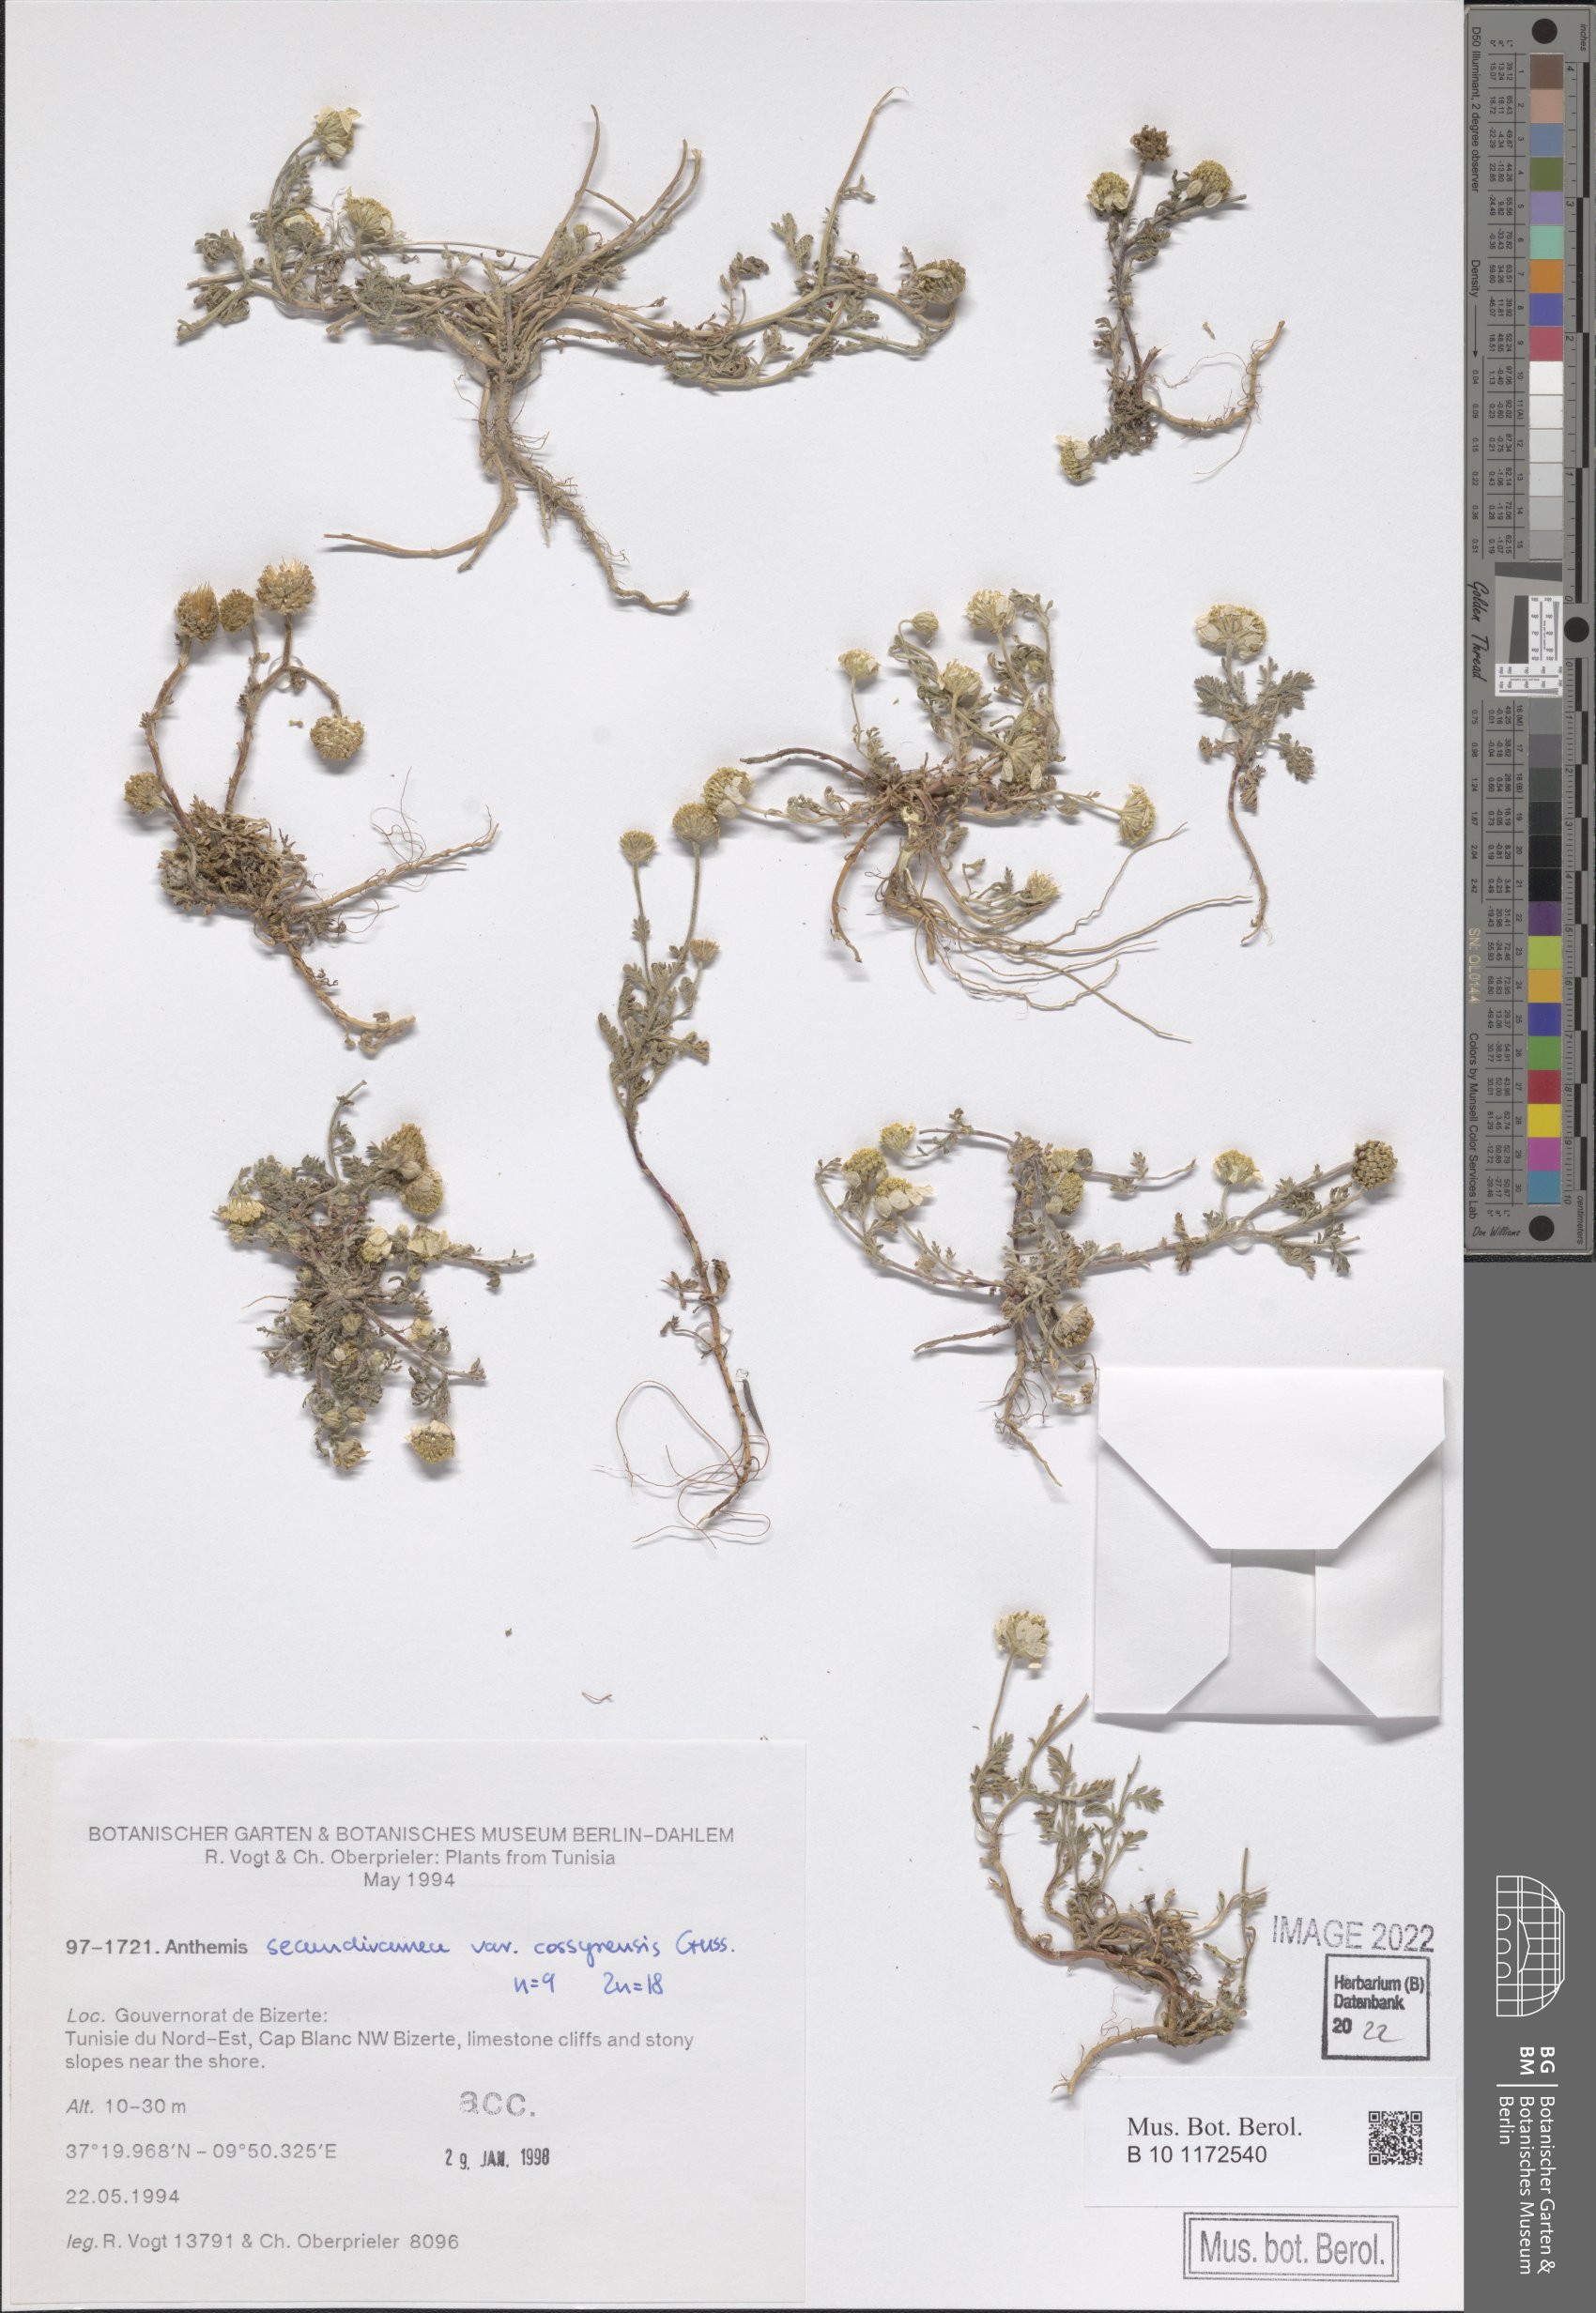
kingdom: Plantae
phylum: Tracheophyta
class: Magnoliopsida
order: Asterales
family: Asteraceae
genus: Anthemis
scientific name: Anthemis secundiramea
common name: Prostrate chamomile
